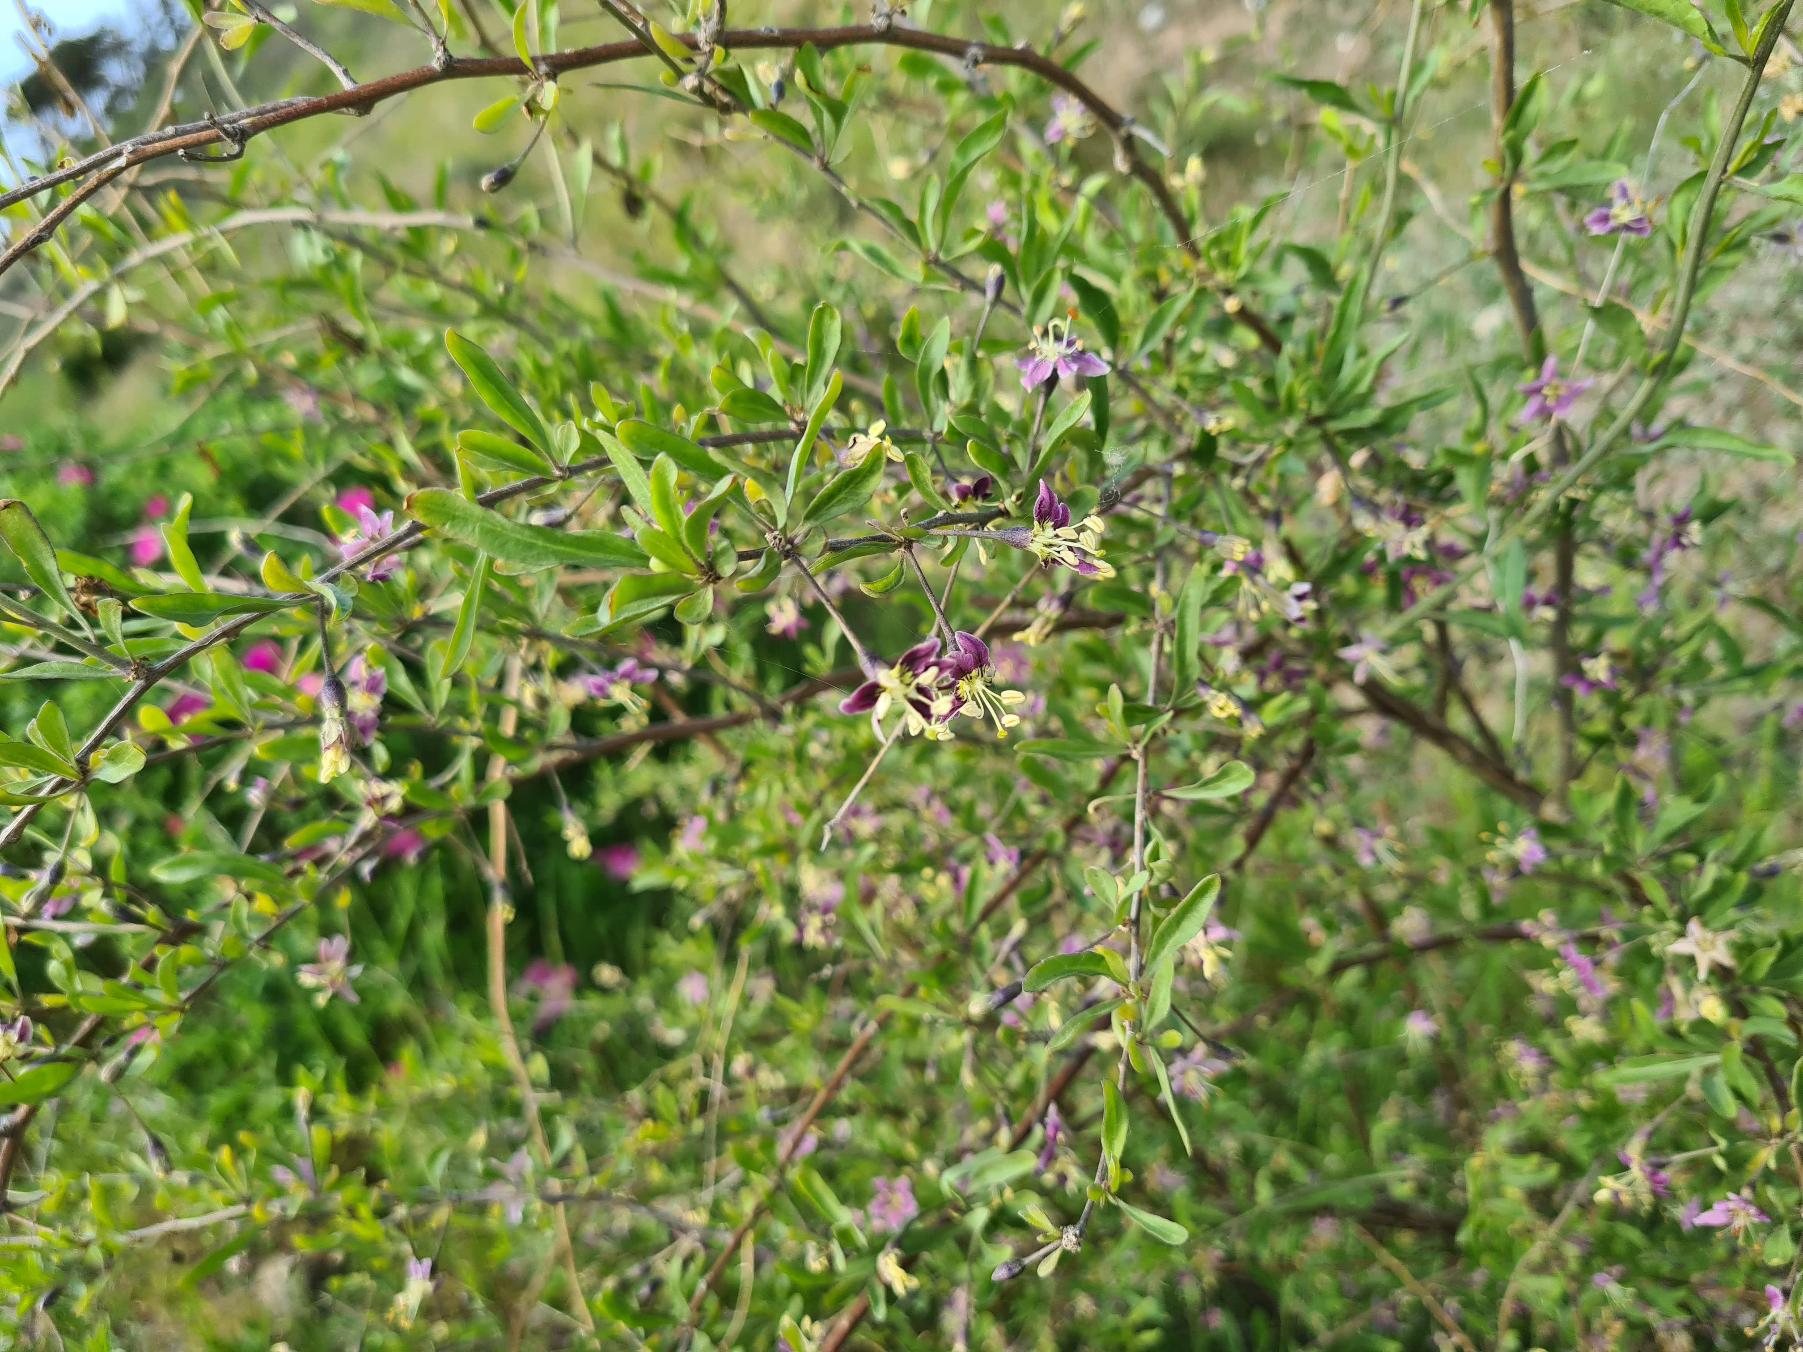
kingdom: Plantae
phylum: Tracheophyta
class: Magnoliopsida
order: Solanales
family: Solanaceae
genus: Lycium
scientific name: Lycium barbarum
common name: Bukketorn
